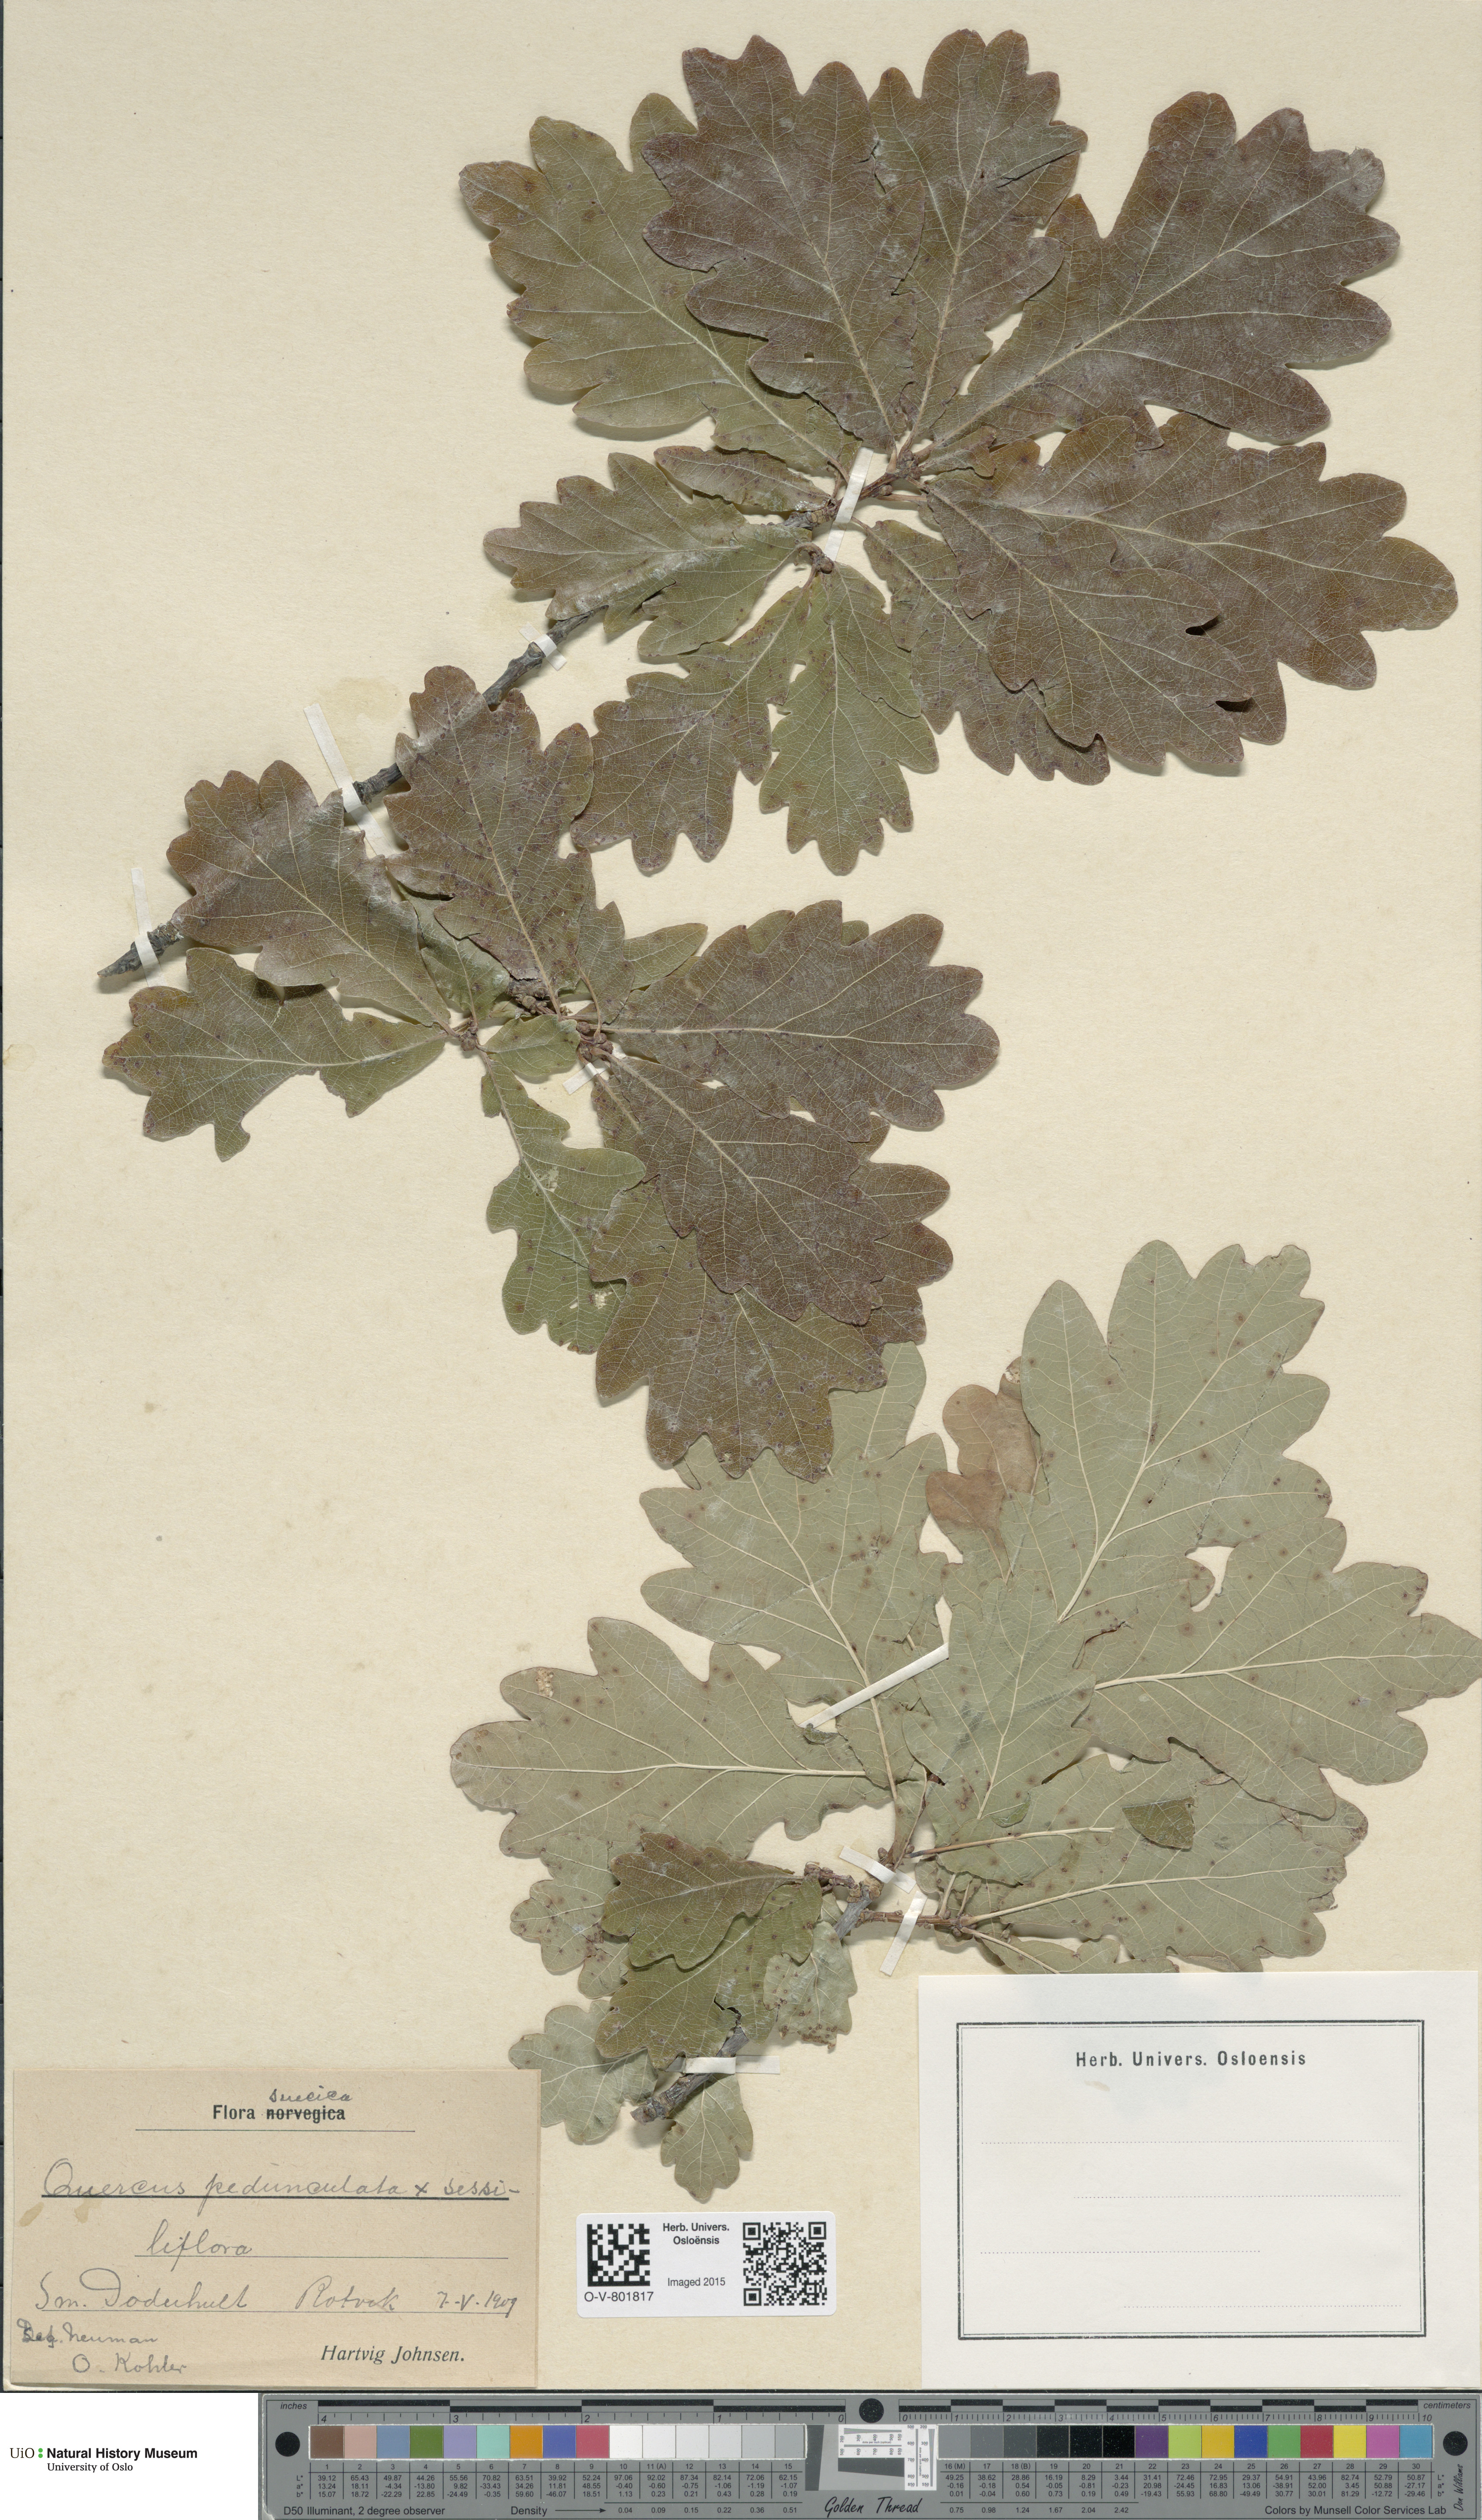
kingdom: Plantae
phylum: Tracheophyta
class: Magnoliopsida
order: Fagales
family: Fagaceae
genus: Quercus
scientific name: Quercus robur
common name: Pedunculate oak
